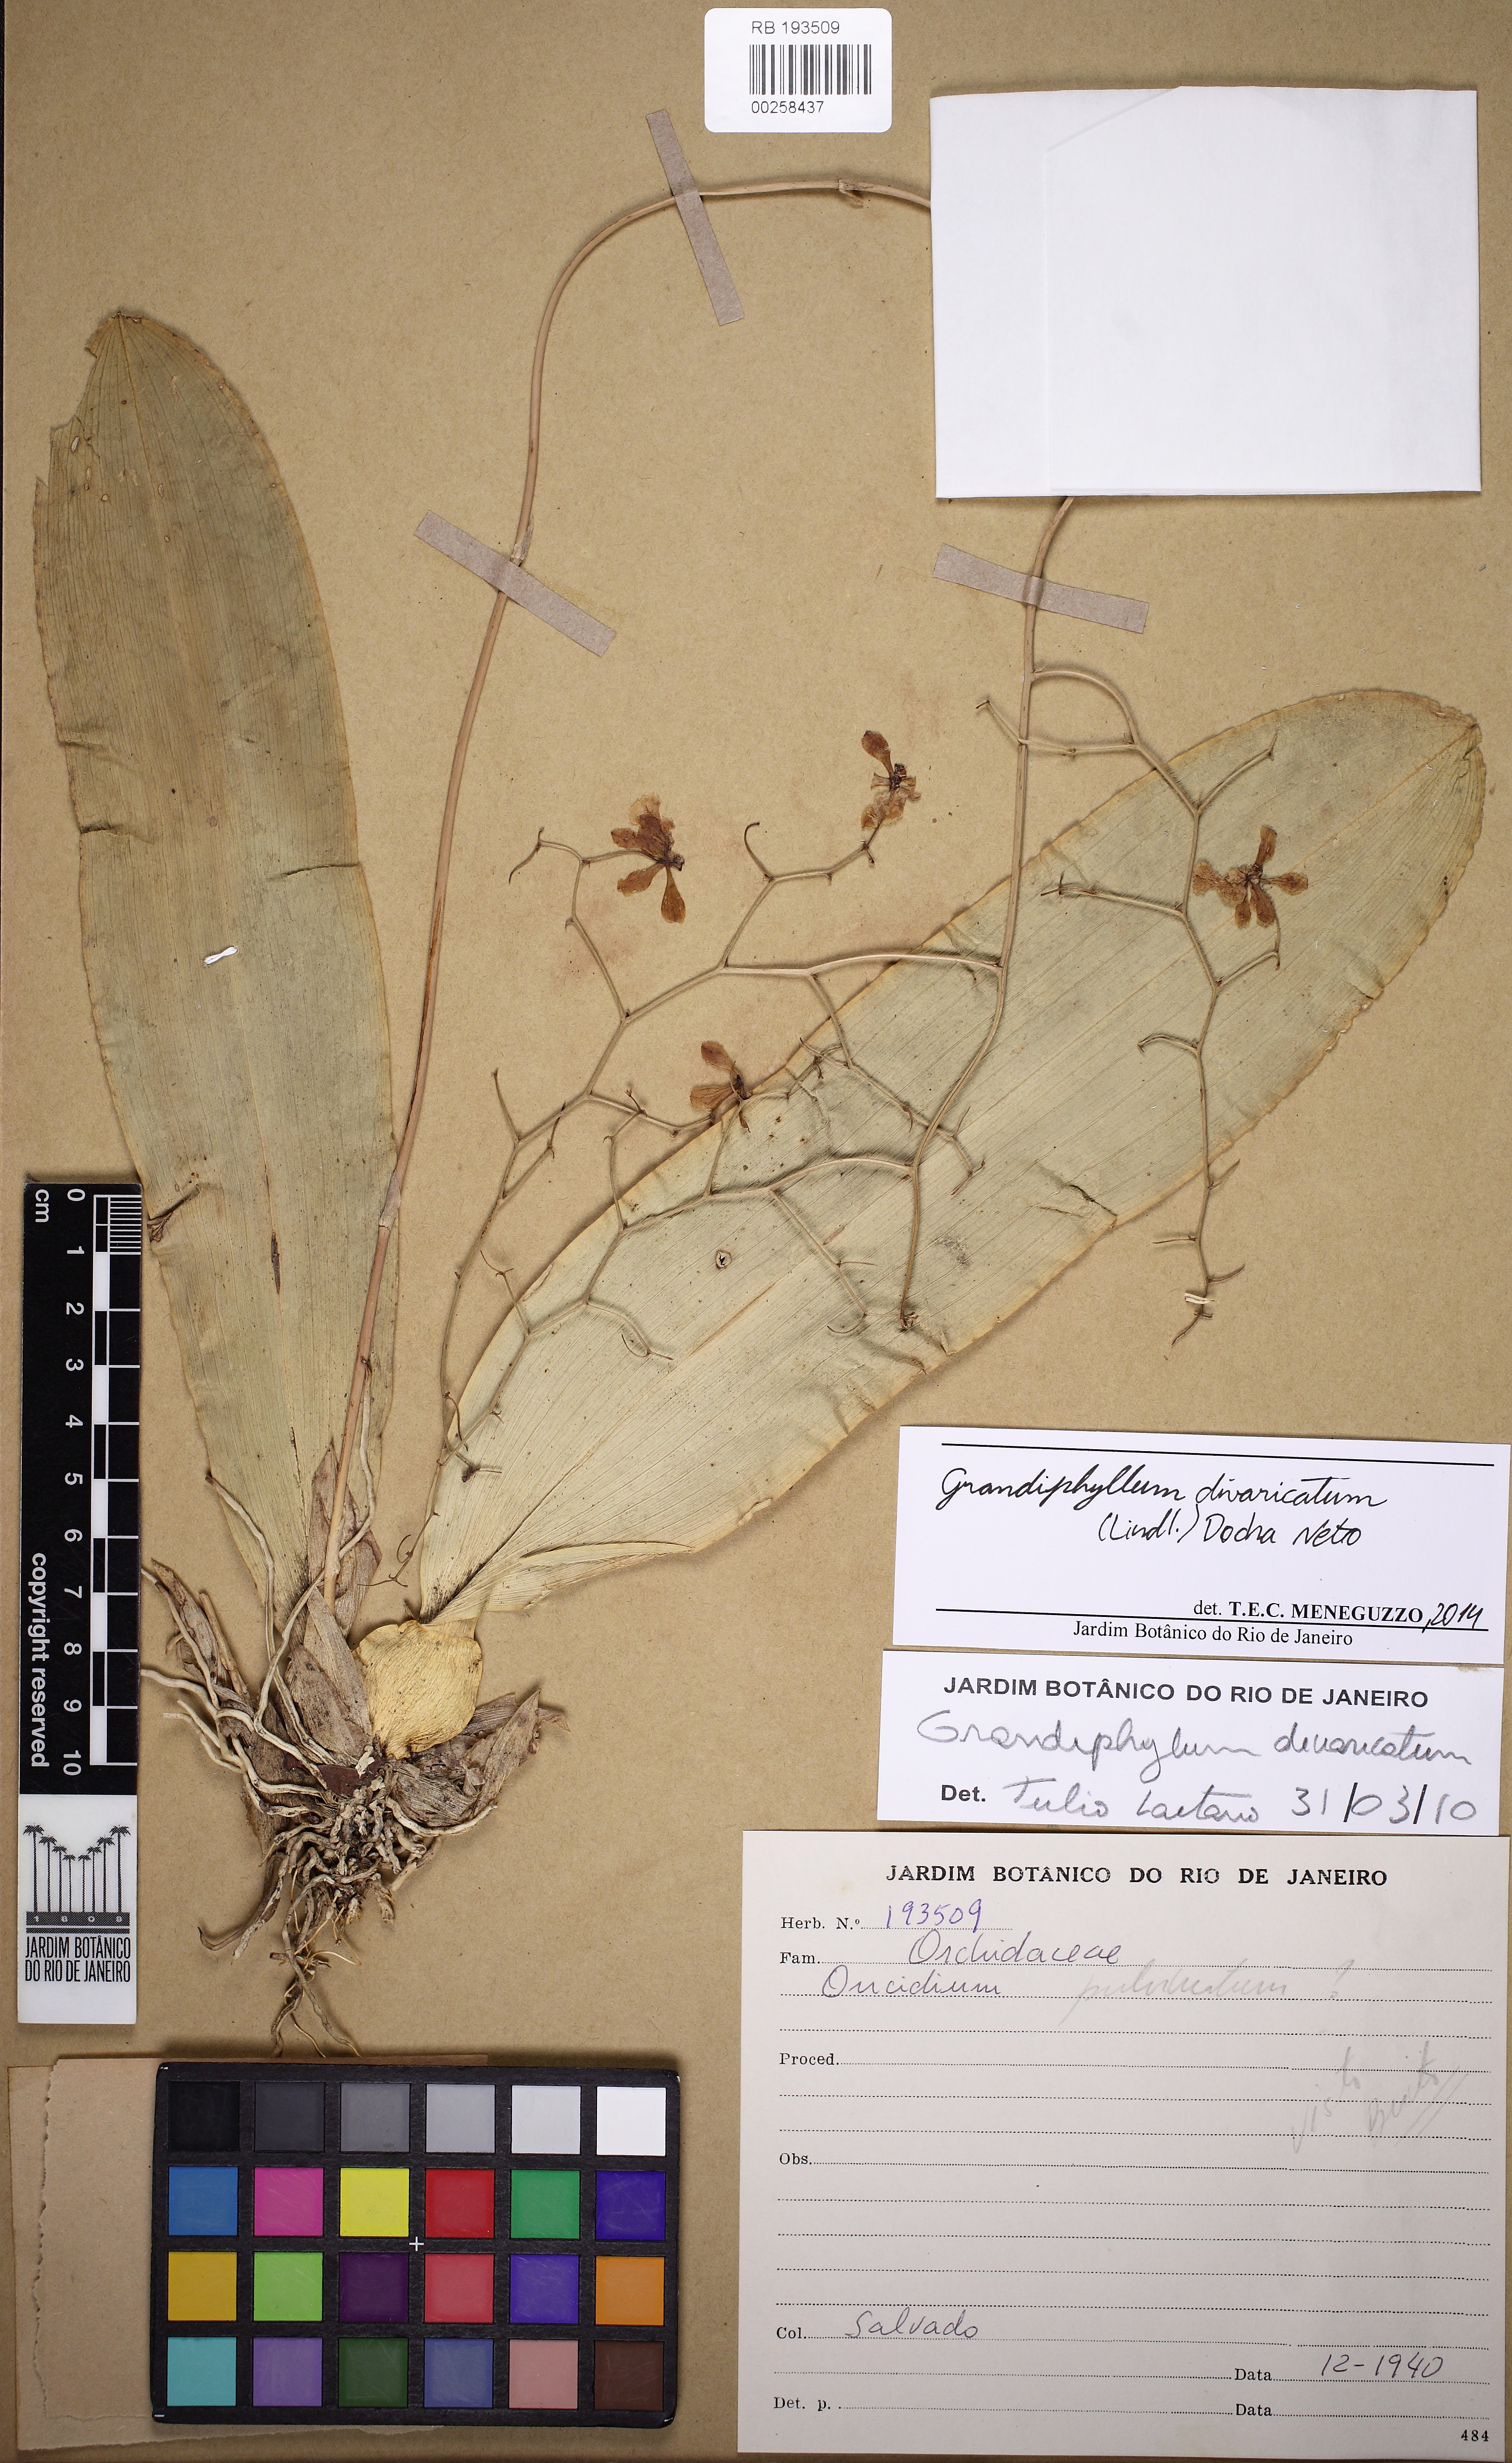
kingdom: Plantae
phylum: Tracheophyta
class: Liliopsida
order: Asparagales
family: Orchidaceae
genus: Grandiphyllum
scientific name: Grandiphyllum divaricatum
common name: Mule-ear orchid
